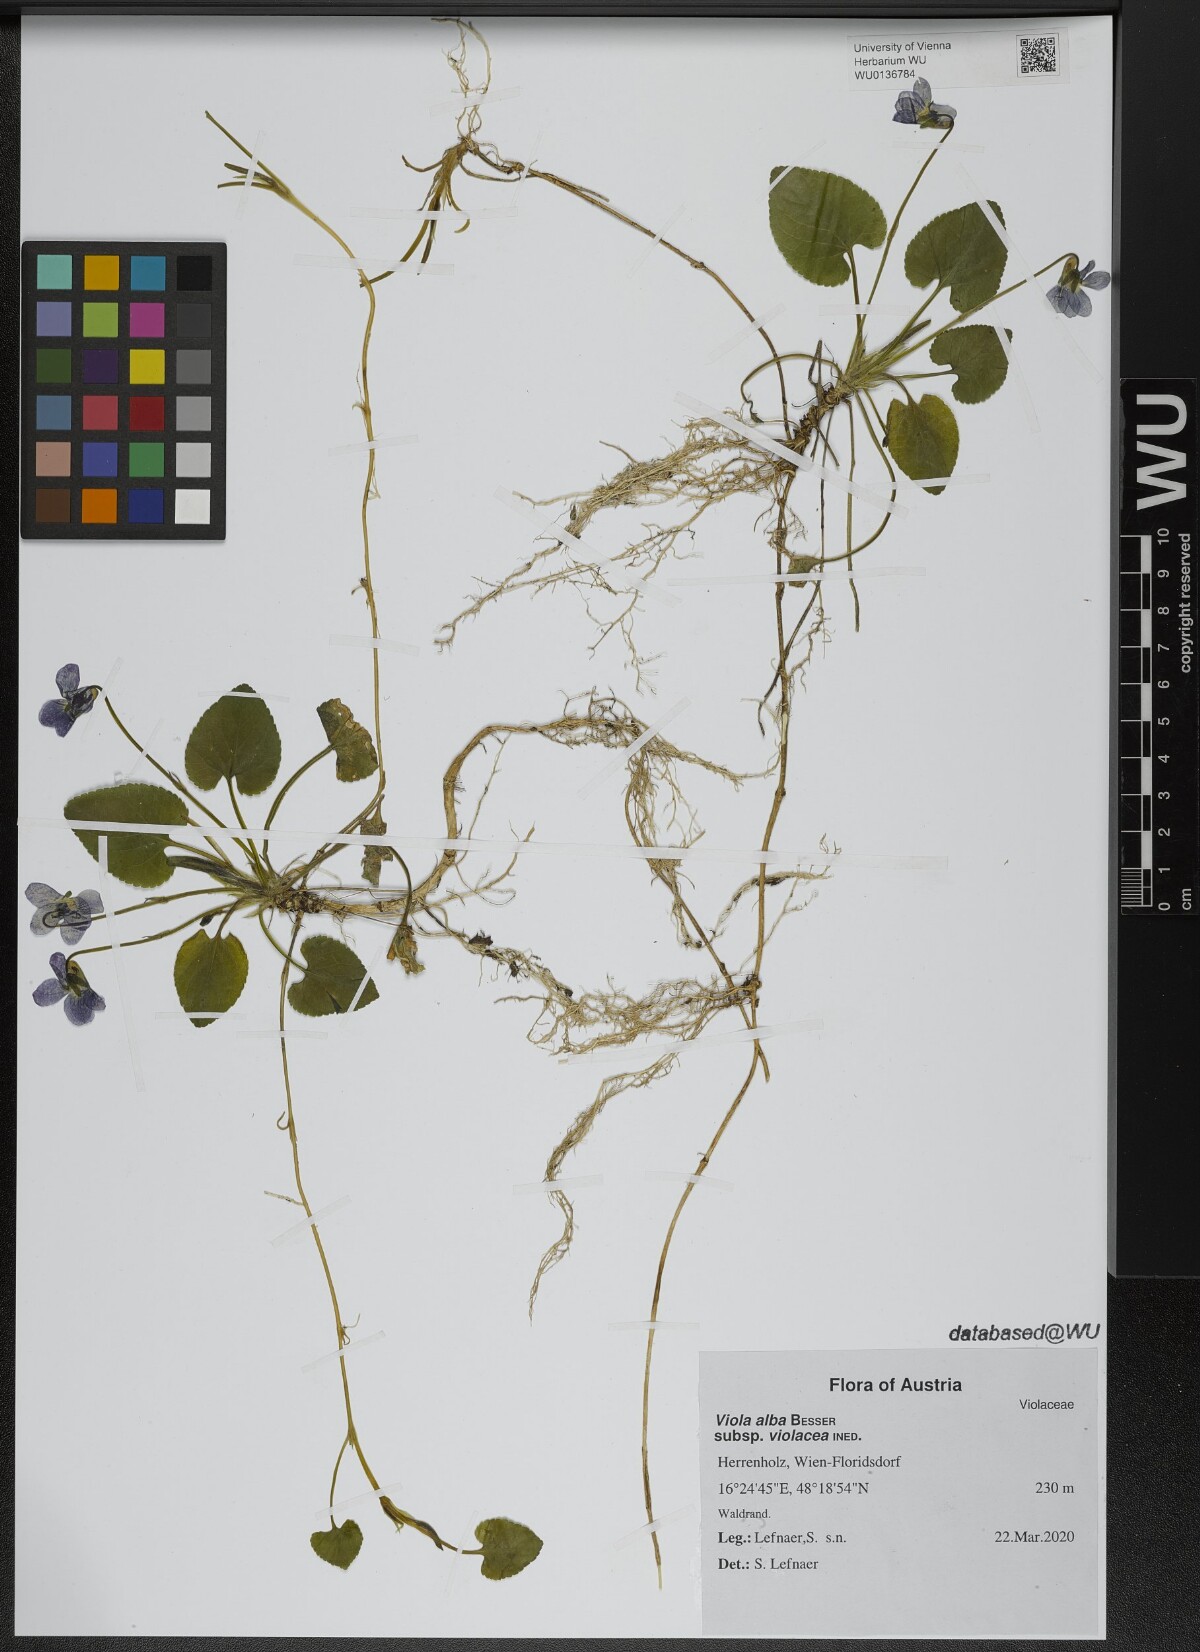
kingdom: Plantae
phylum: Tracheophyta
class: Magnoliopsida
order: Malpighiales
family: Violaceae
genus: Viola
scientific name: Viola alba
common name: White violet
